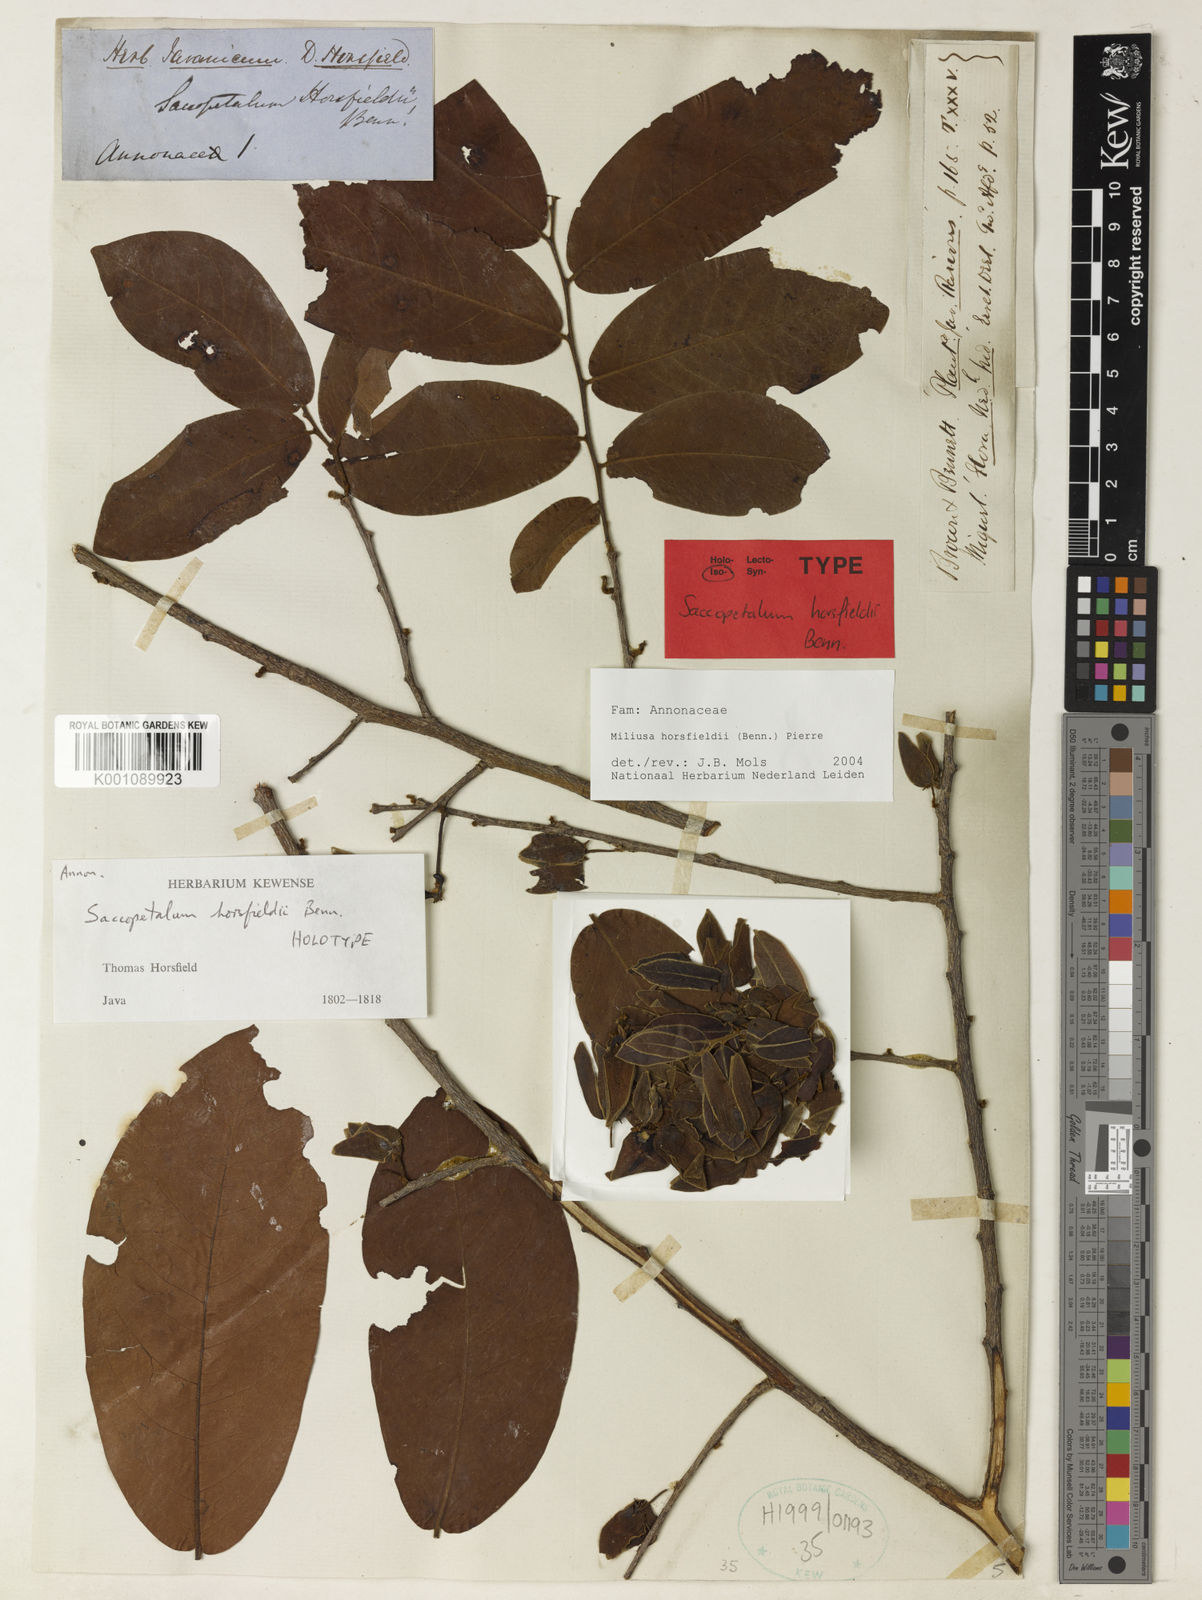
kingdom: Plantae
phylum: Tracheophyta
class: Magnoliopsida
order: Magnoliales
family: Annonaceae
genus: Miliusa
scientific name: Miliusa horsfieldii
